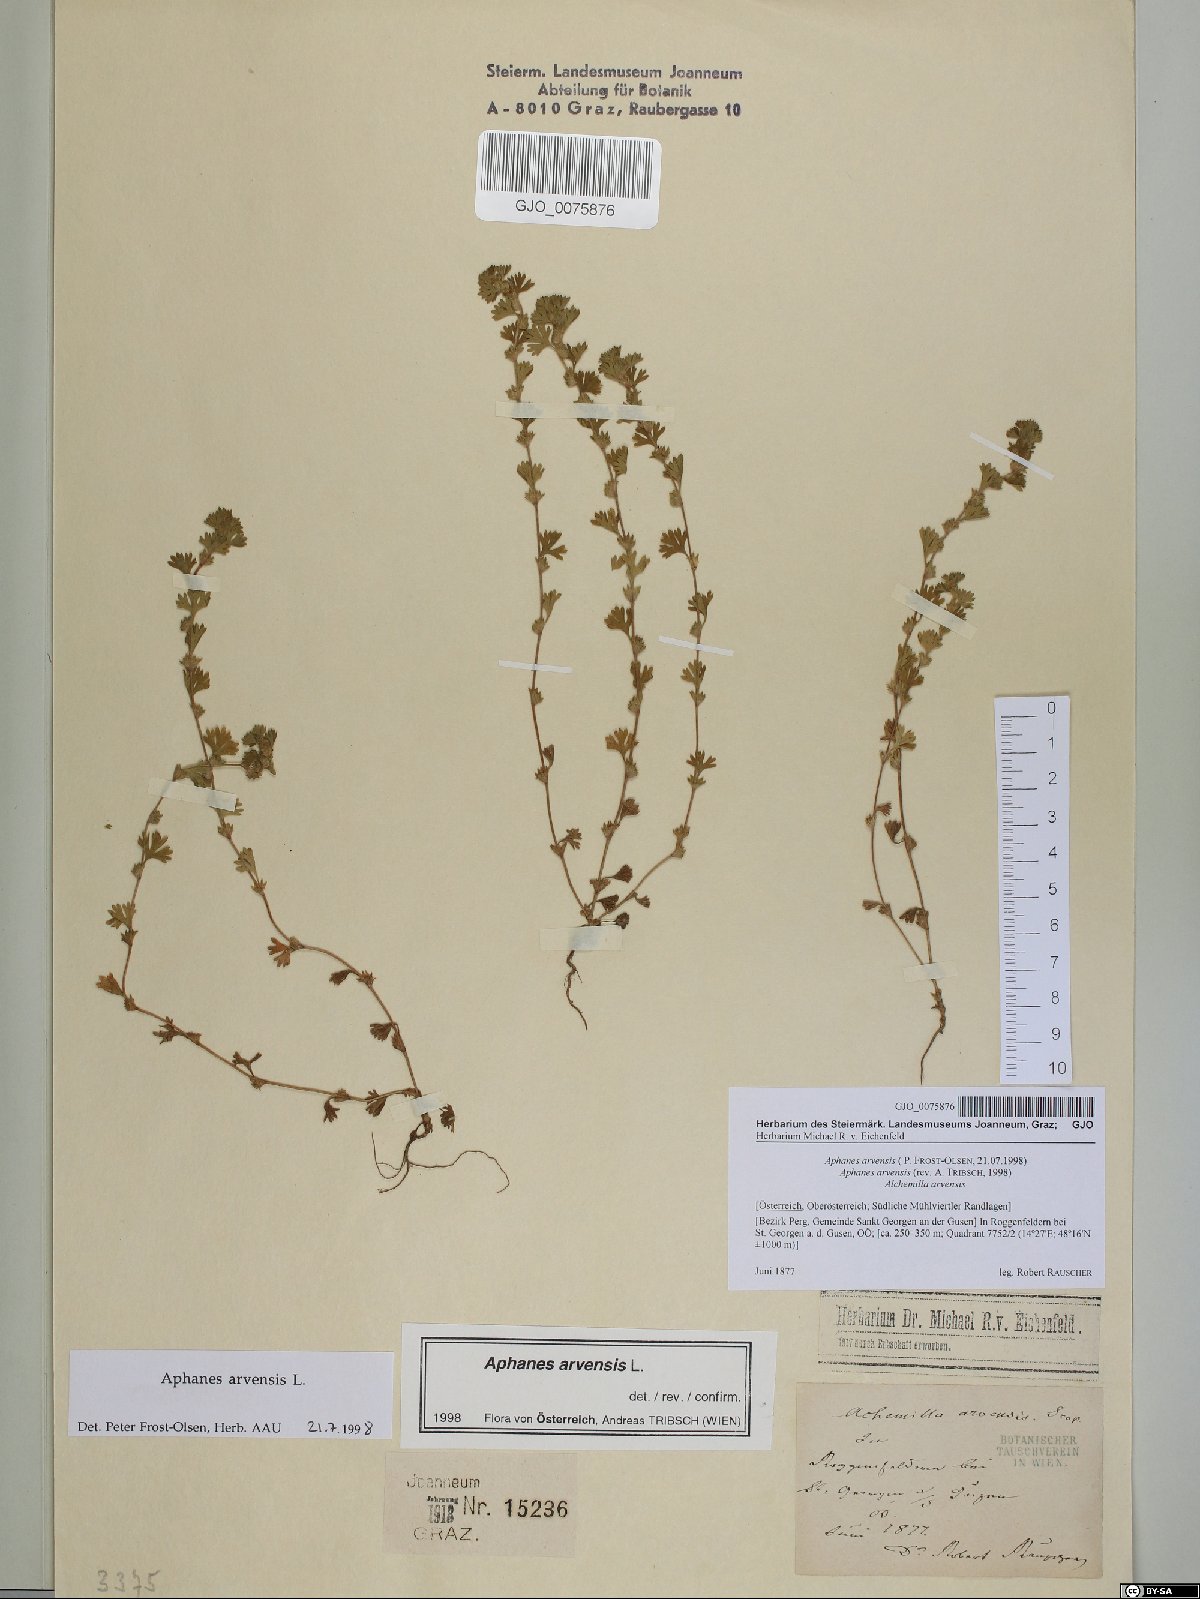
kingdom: Plantae
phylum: Tracheophyta
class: Magnoliopsida
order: Rosales
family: Rosaceae
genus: Aphanes
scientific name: Aphanes arvensis
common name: Parsley-piert
